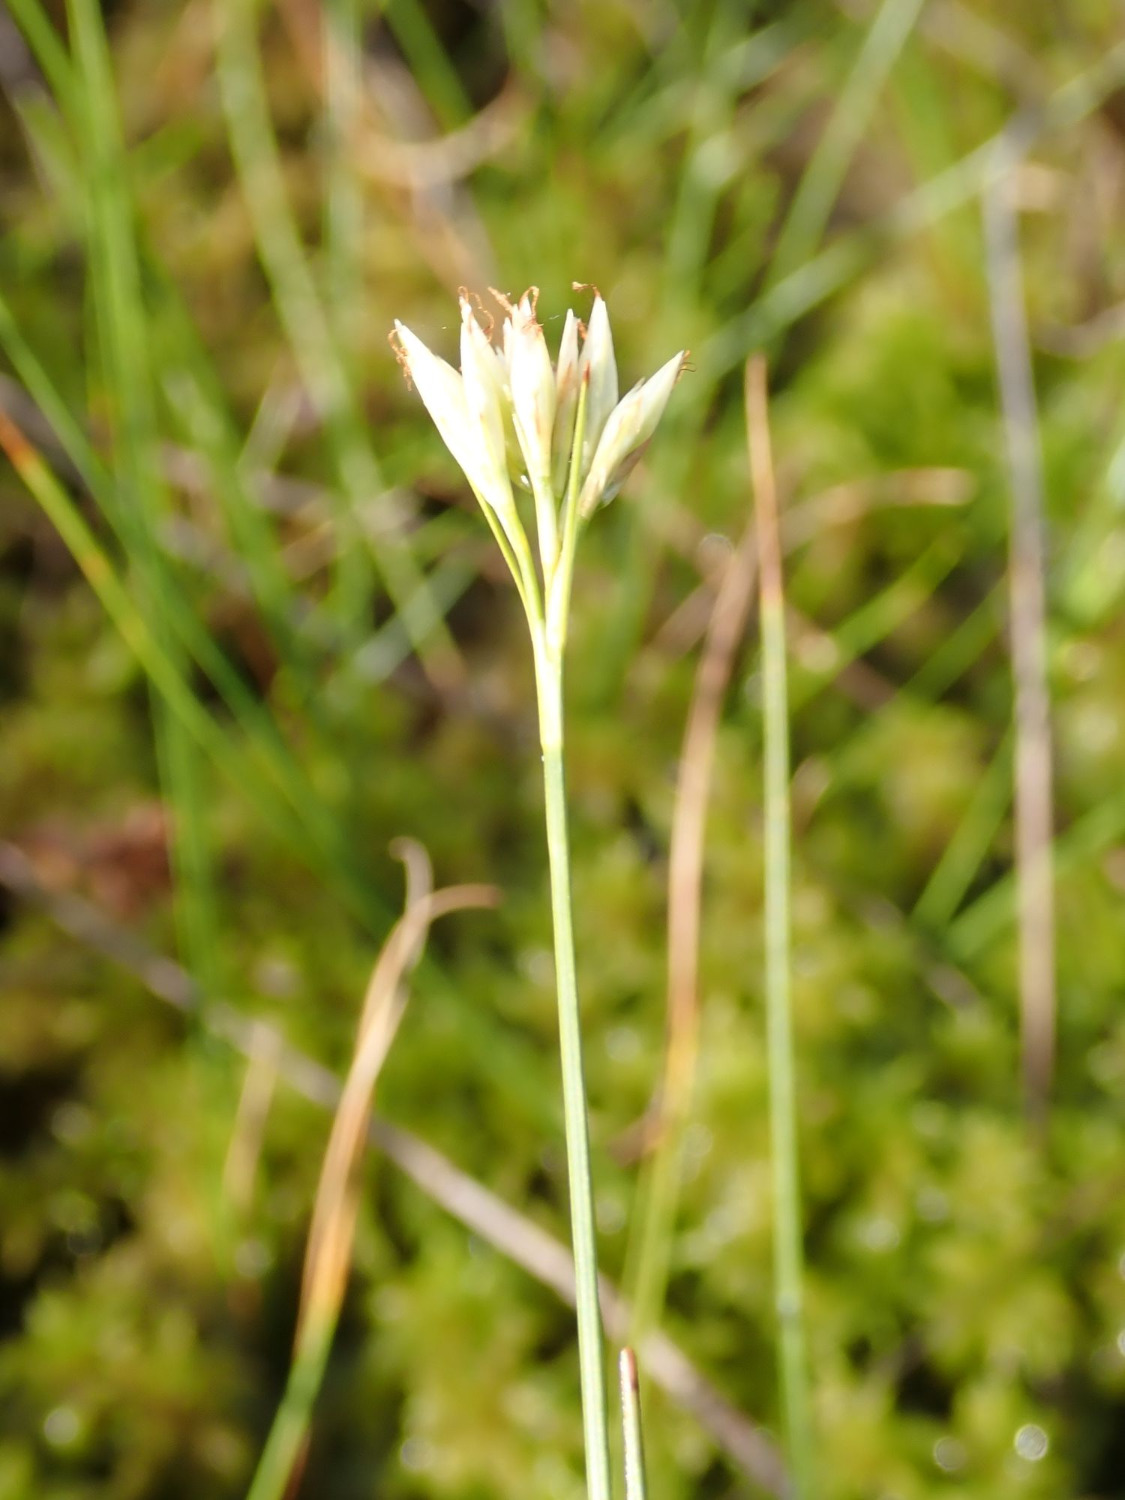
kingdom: Plantae
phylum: Tracheophyta
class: Liliopsida
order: Poales
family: Cyperaceae
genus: Rhynchospora
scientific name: Rhynchospora alba
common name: Hvid næbfrø
